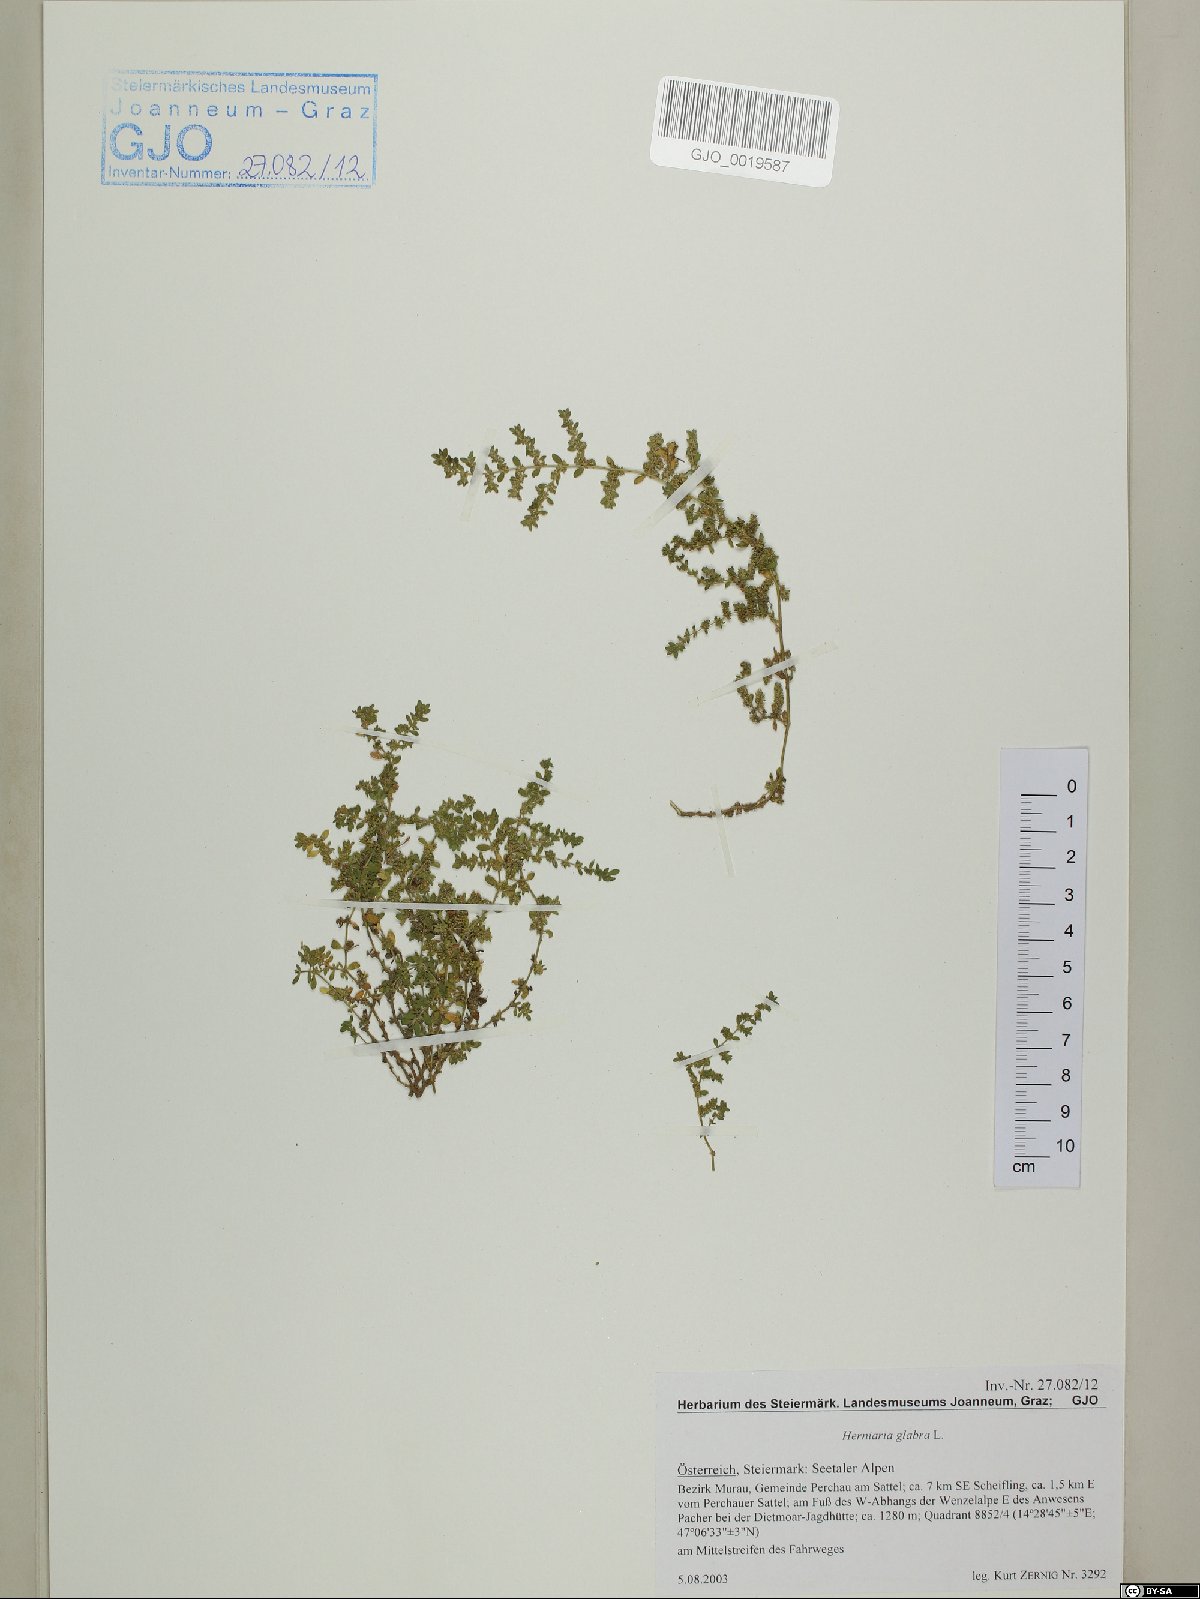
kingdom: Plantae
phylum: Tracheophyta
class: Magnoliopsida
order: Caryophyllales
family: Caryophyllaceae
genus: Herniaria
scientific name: Herniaria glabra
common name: Smooth rupturewort
